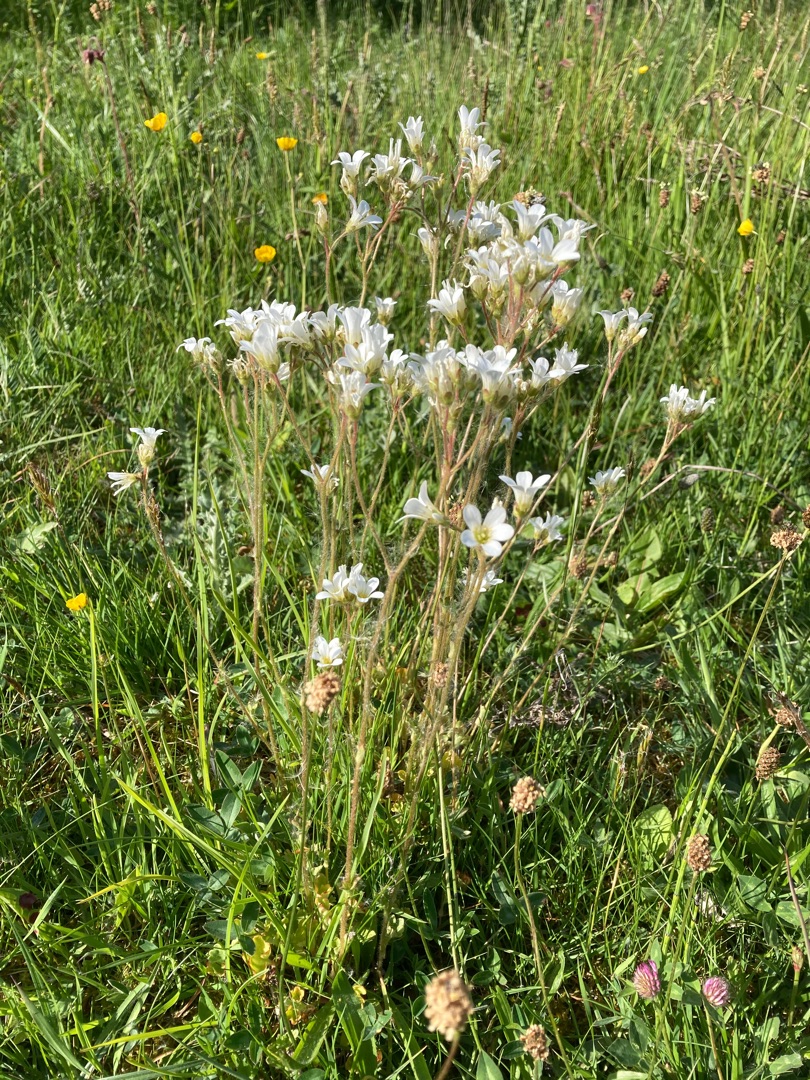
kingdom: Plantae
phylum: Tracheophyta
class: Magnoliopsida
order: Saxifragales
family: Saxifragaceae
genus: Saxifraga
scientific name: Saxifraga granulata
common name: Kornet stenbræk
